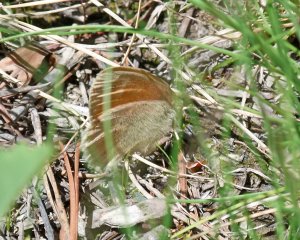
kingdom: Animalia
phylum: Arthropoda
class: Insecta
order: Lepidoptera
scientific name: Lepidoptera
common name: Butterflies
